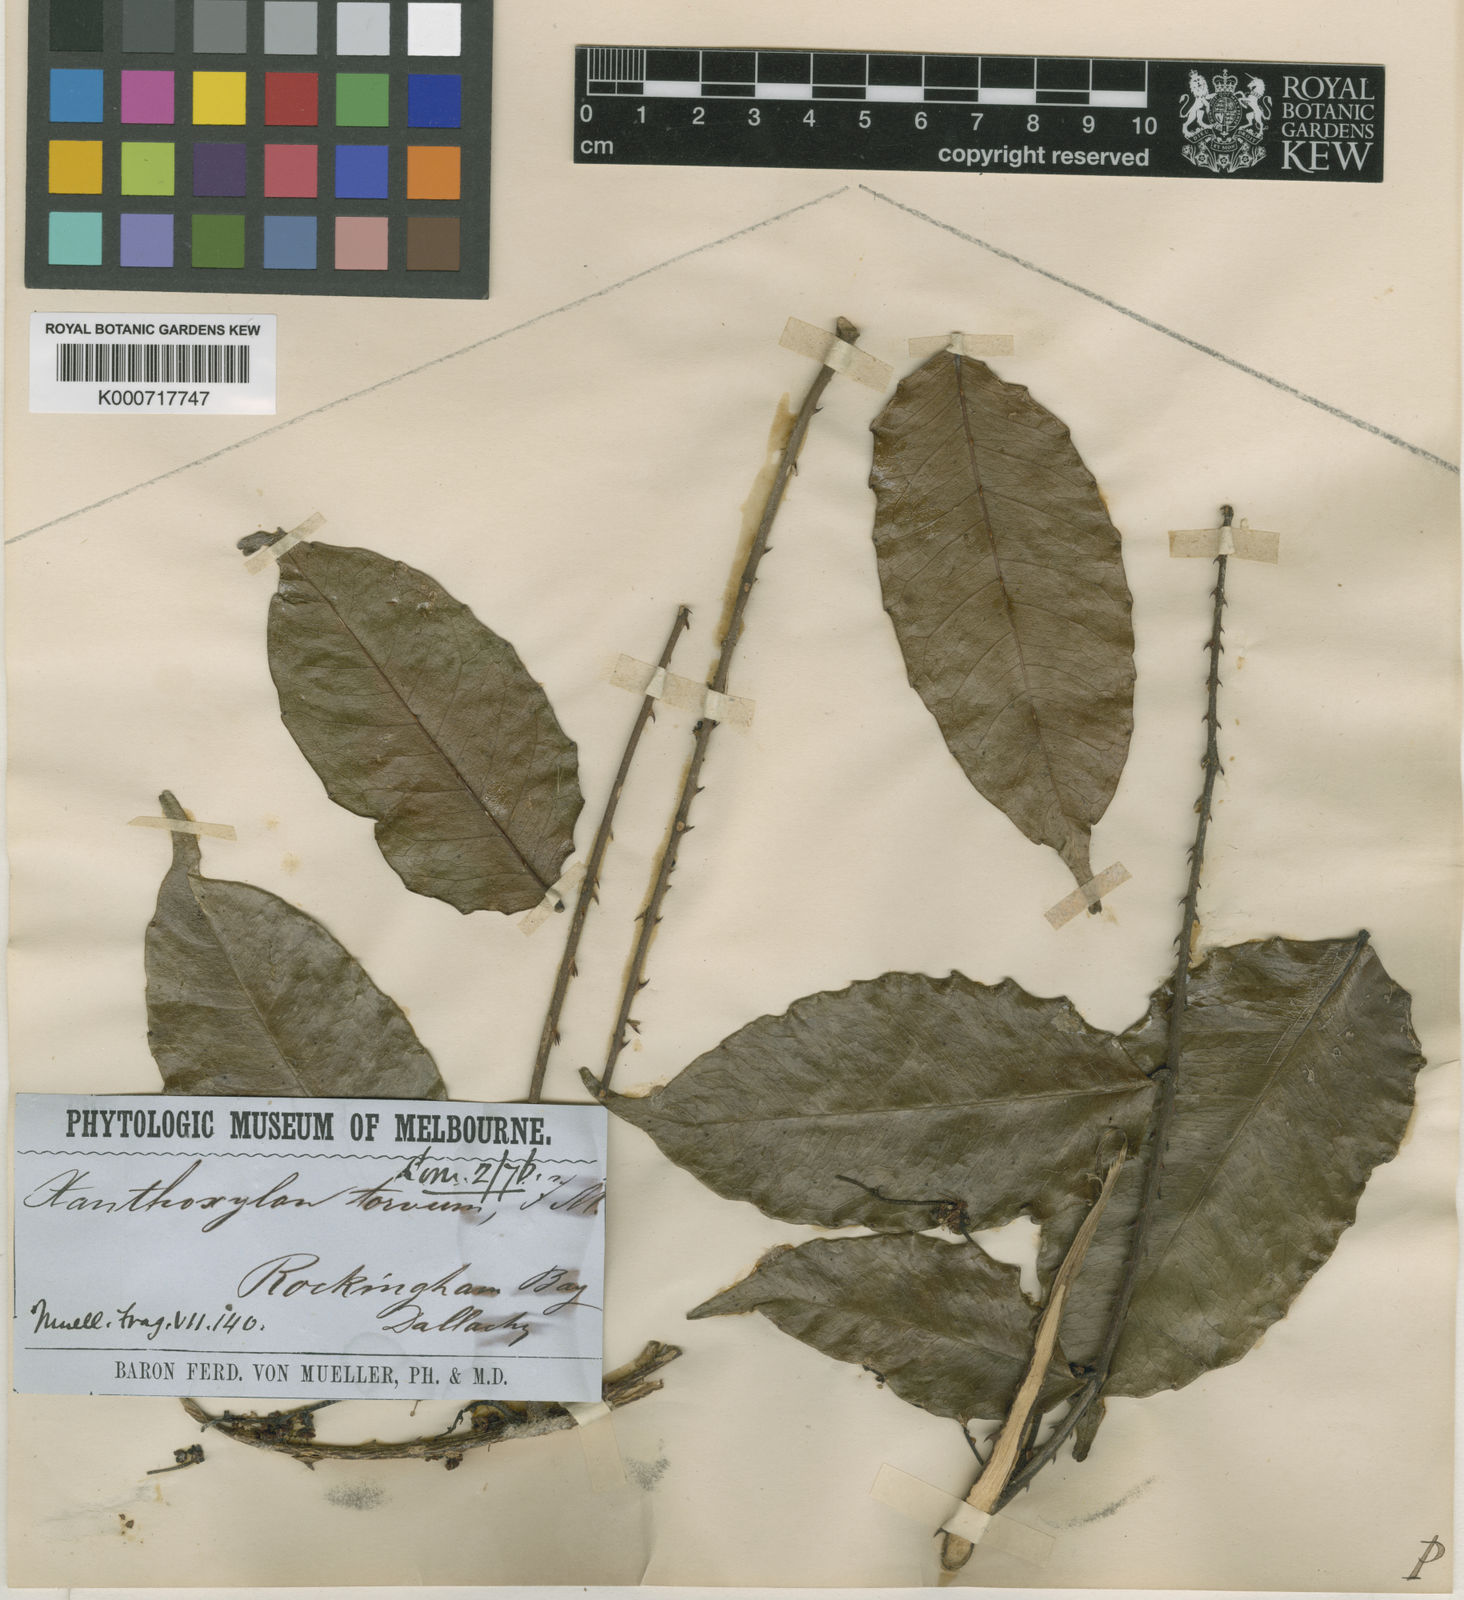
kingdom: Plantae
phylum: Tracheophyta
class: Magnoliopsida
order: Sapindales
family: Rutaceae
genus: Zanthoxylum
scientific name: Zanthoxylum nitidum
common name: Shiny-leaf prickly-ash
